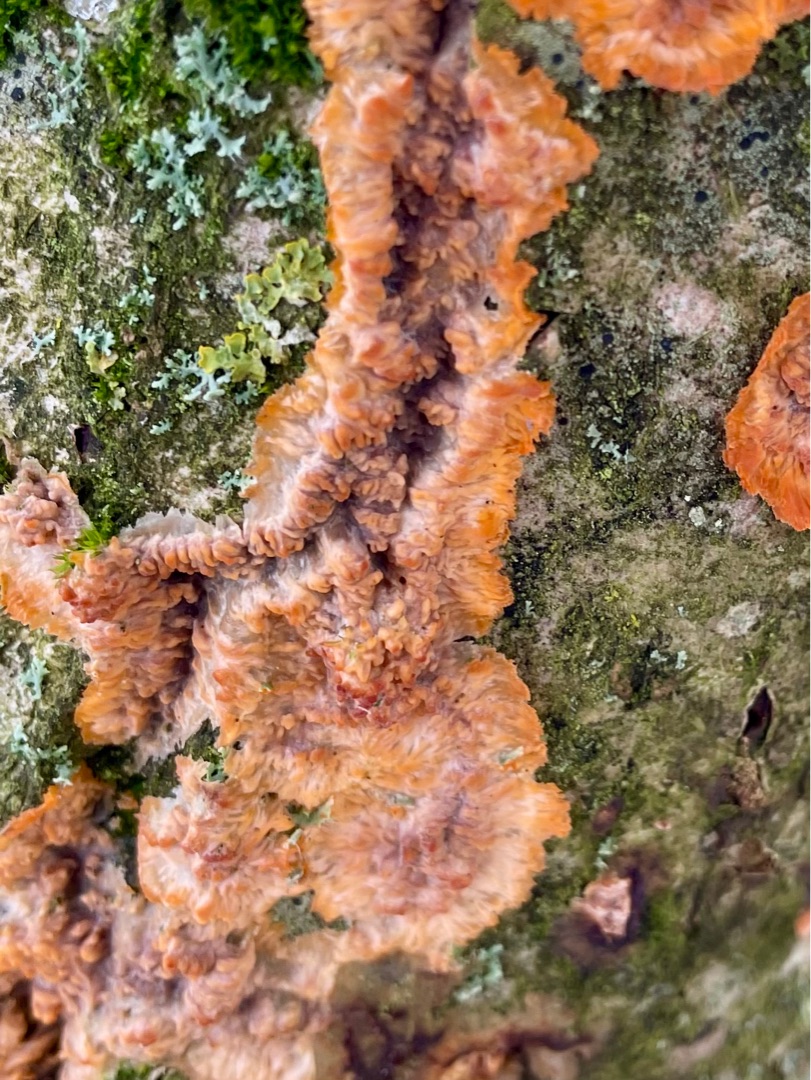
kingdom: Fungi
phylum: Basidiomycota
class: Agaricomycetes
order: Polyporales
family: Meruliaceae
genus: Phlebia
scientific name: Phlebia radiata
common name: Stråle-åresvamp
